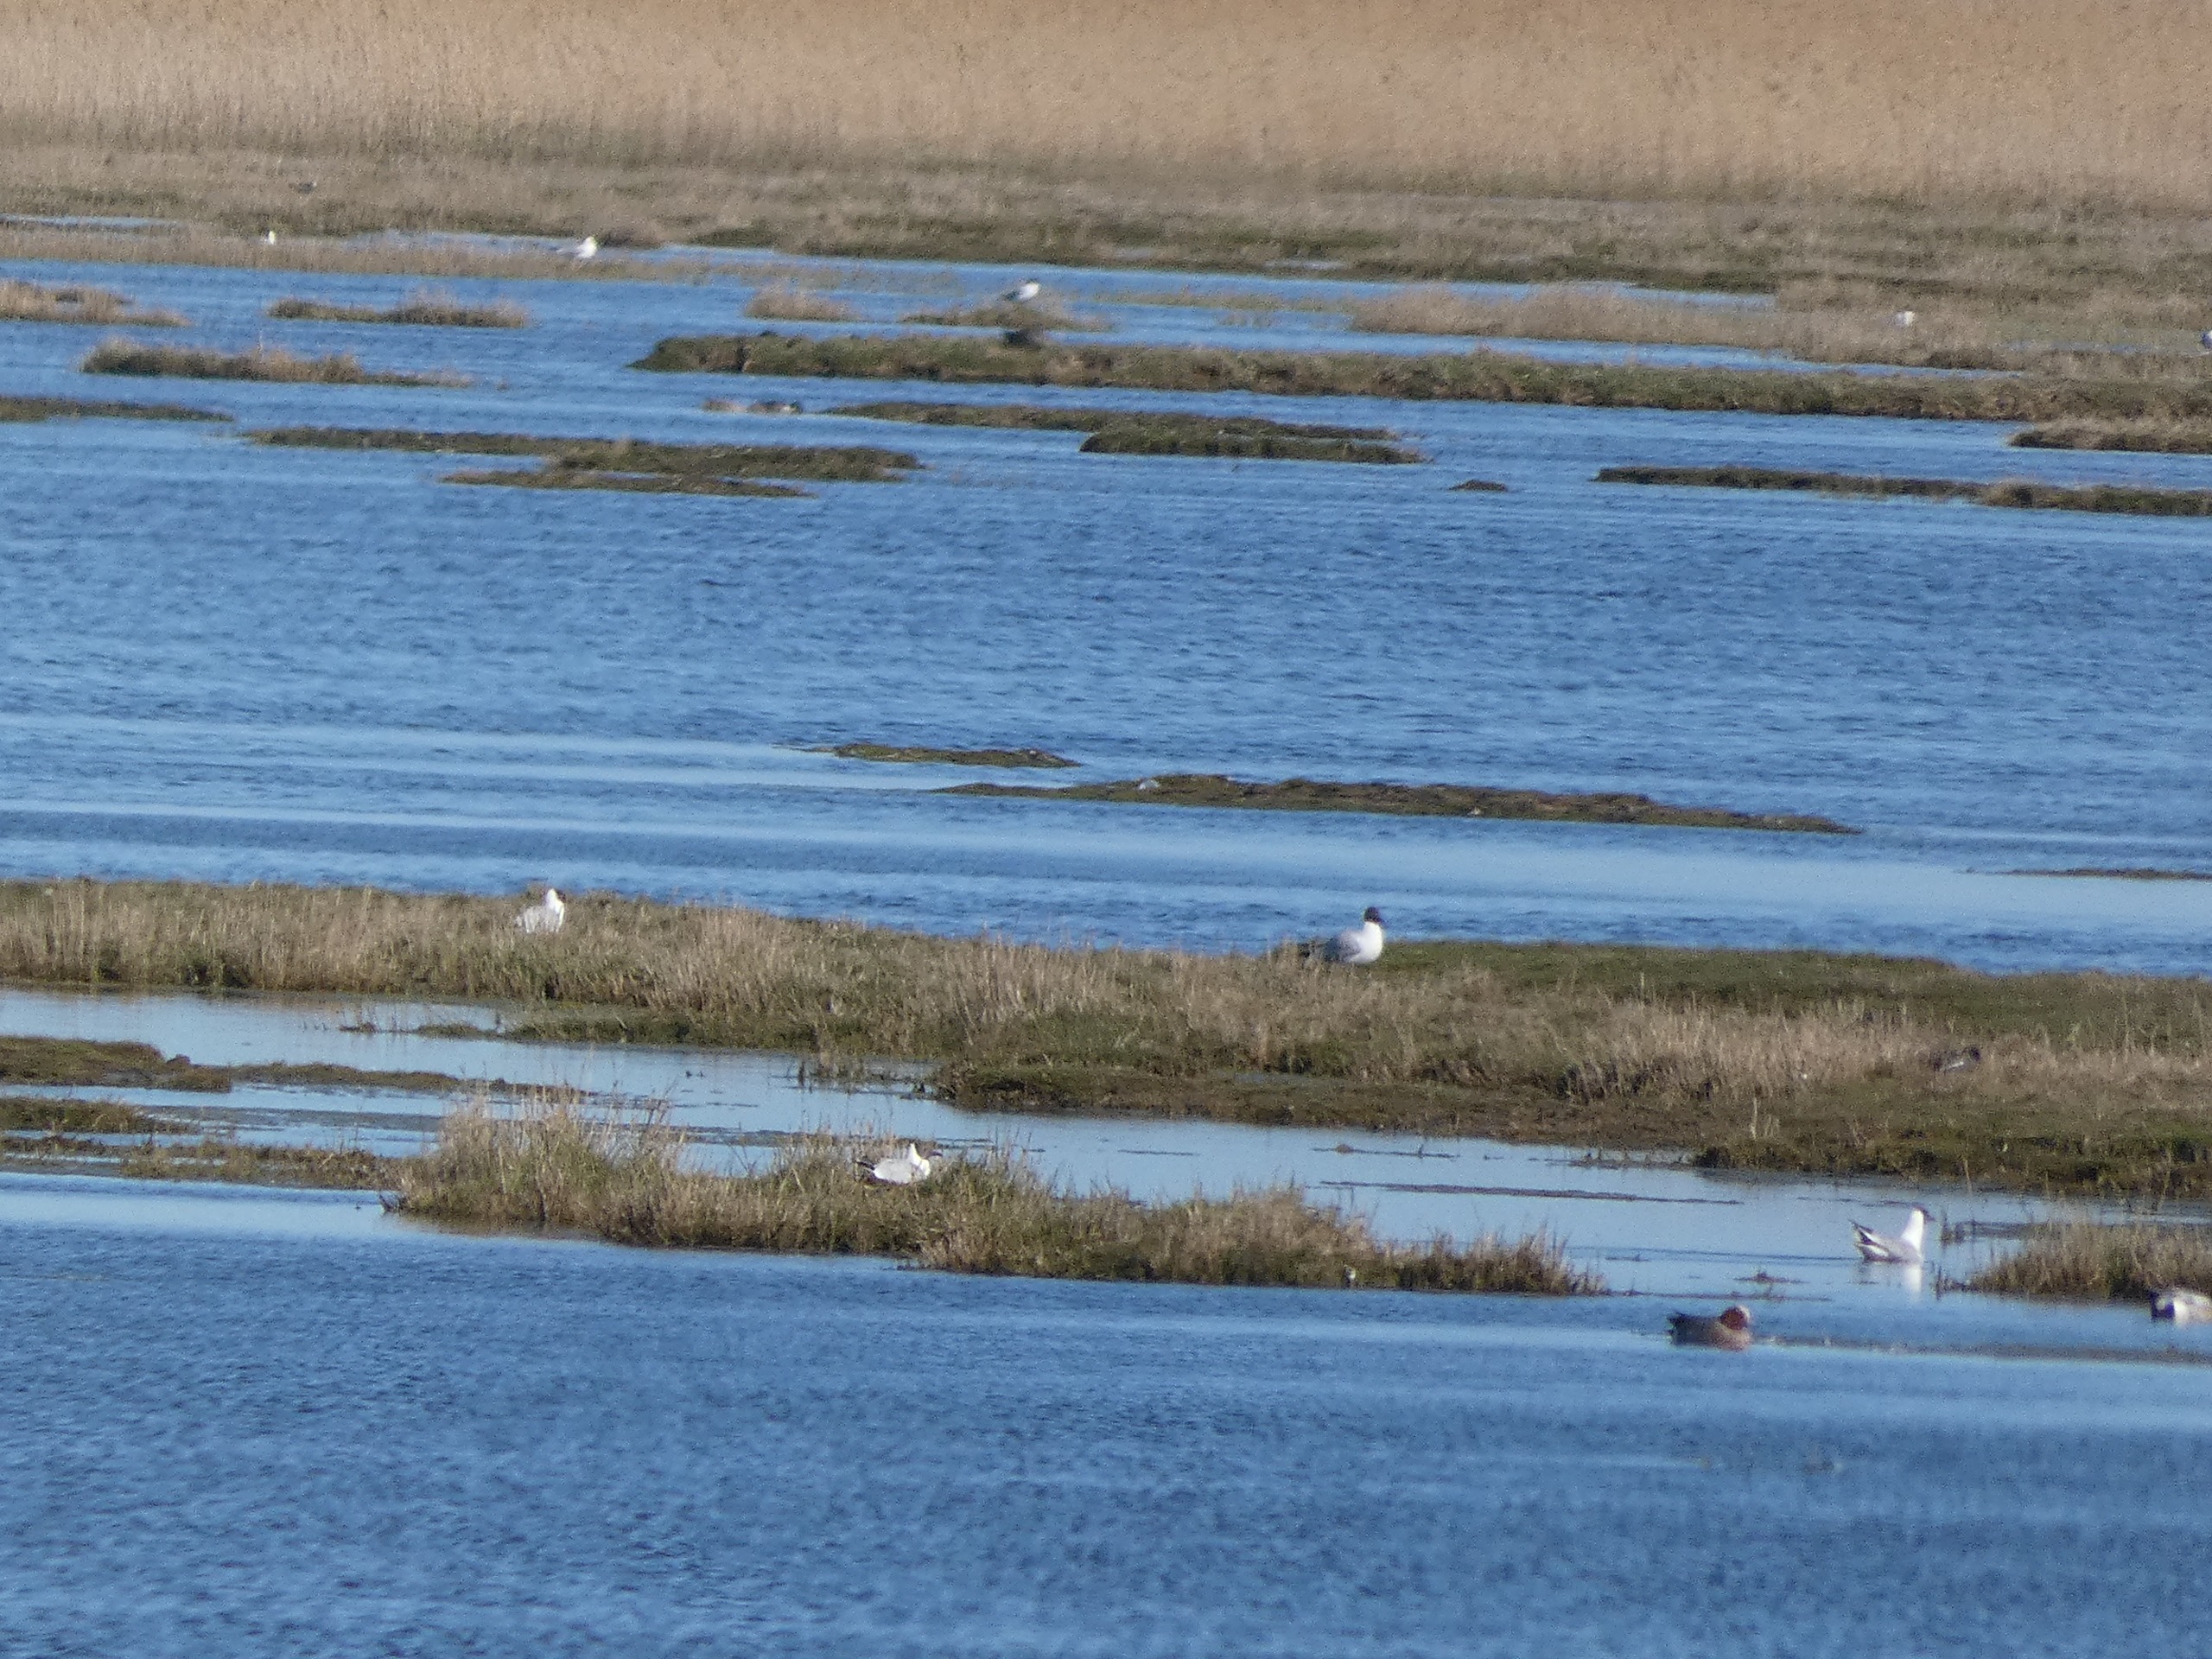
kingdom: Animalia
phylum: Chordata
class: Aves
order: Charadriiformes
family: Laridae
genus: Chroicocephalus
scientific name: Chroicocephalus ridibundus
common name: Hættemåge
